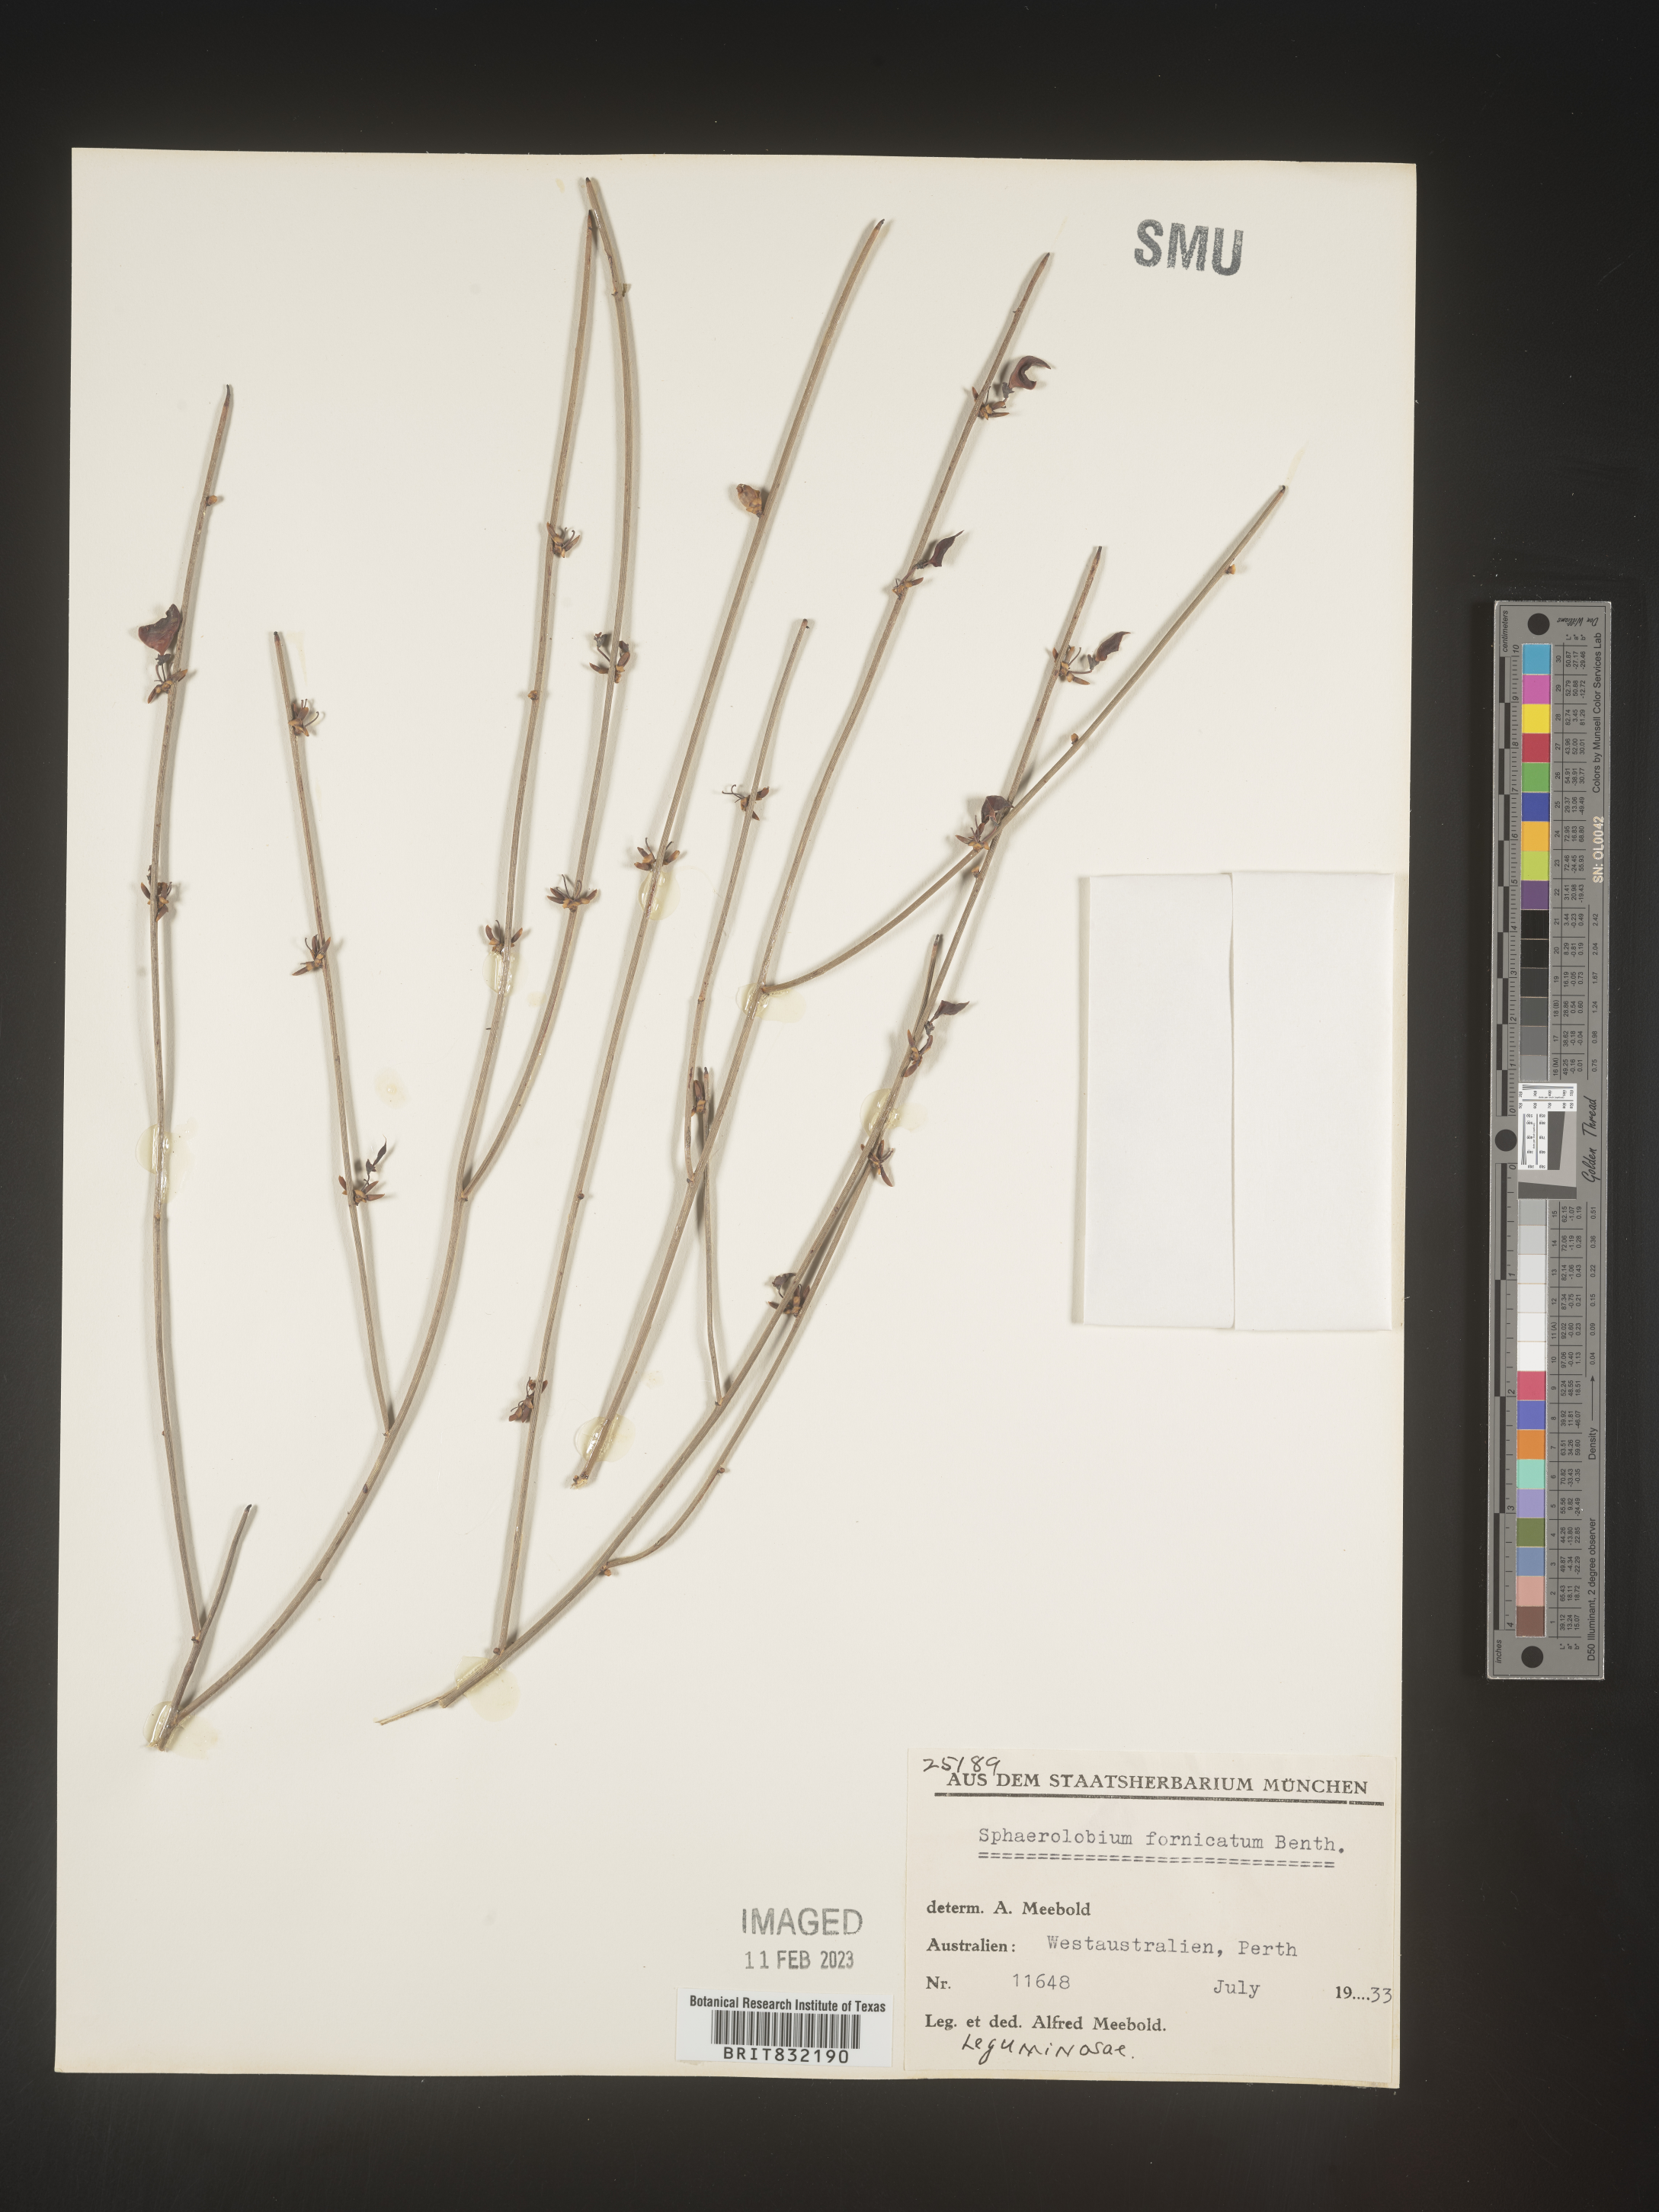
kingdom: Plantae
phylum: Tracheophyta
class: Magnoliopsida
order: Fabales
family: Fabaceae
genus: Sphaerolobium
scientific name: Sphaerolobium
